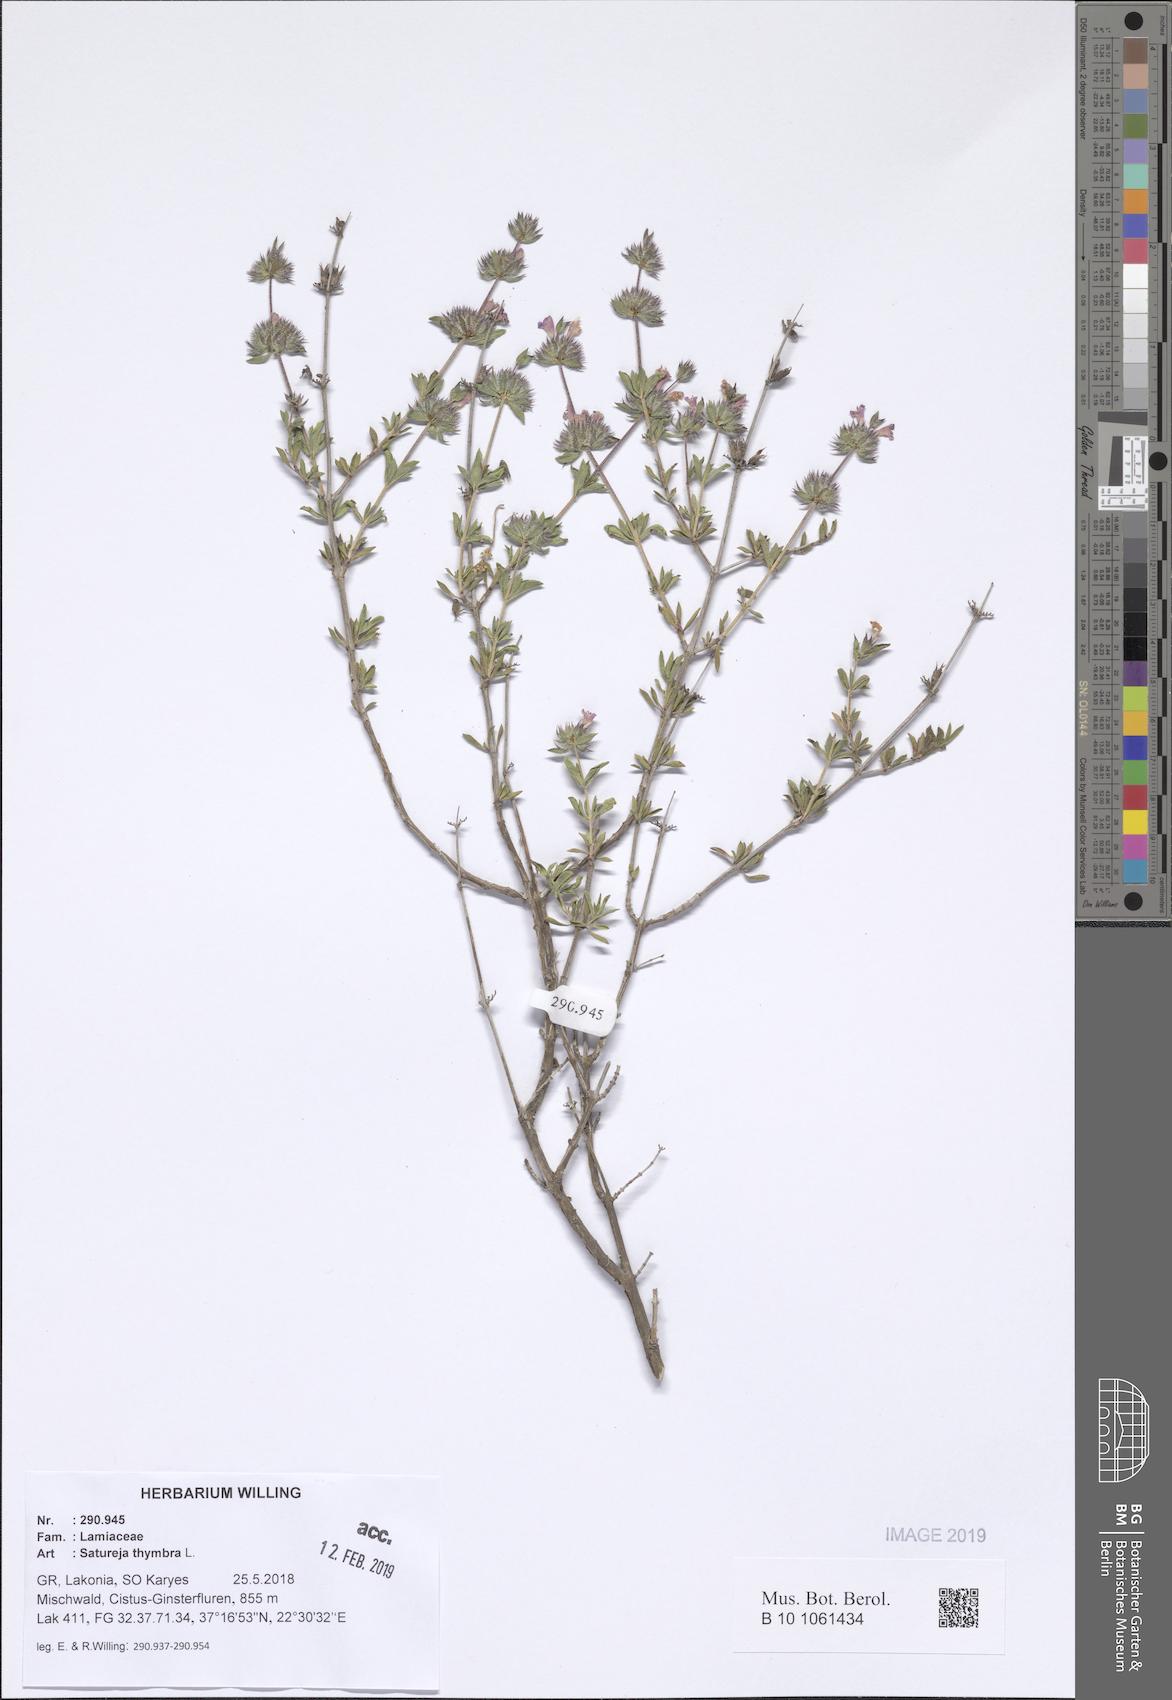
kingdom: Plantae
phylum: Tracheophyta
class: Magnoliopsida
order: Lamiales
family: Lamiaceae
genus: Satureja
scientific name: Satureja thymbra
